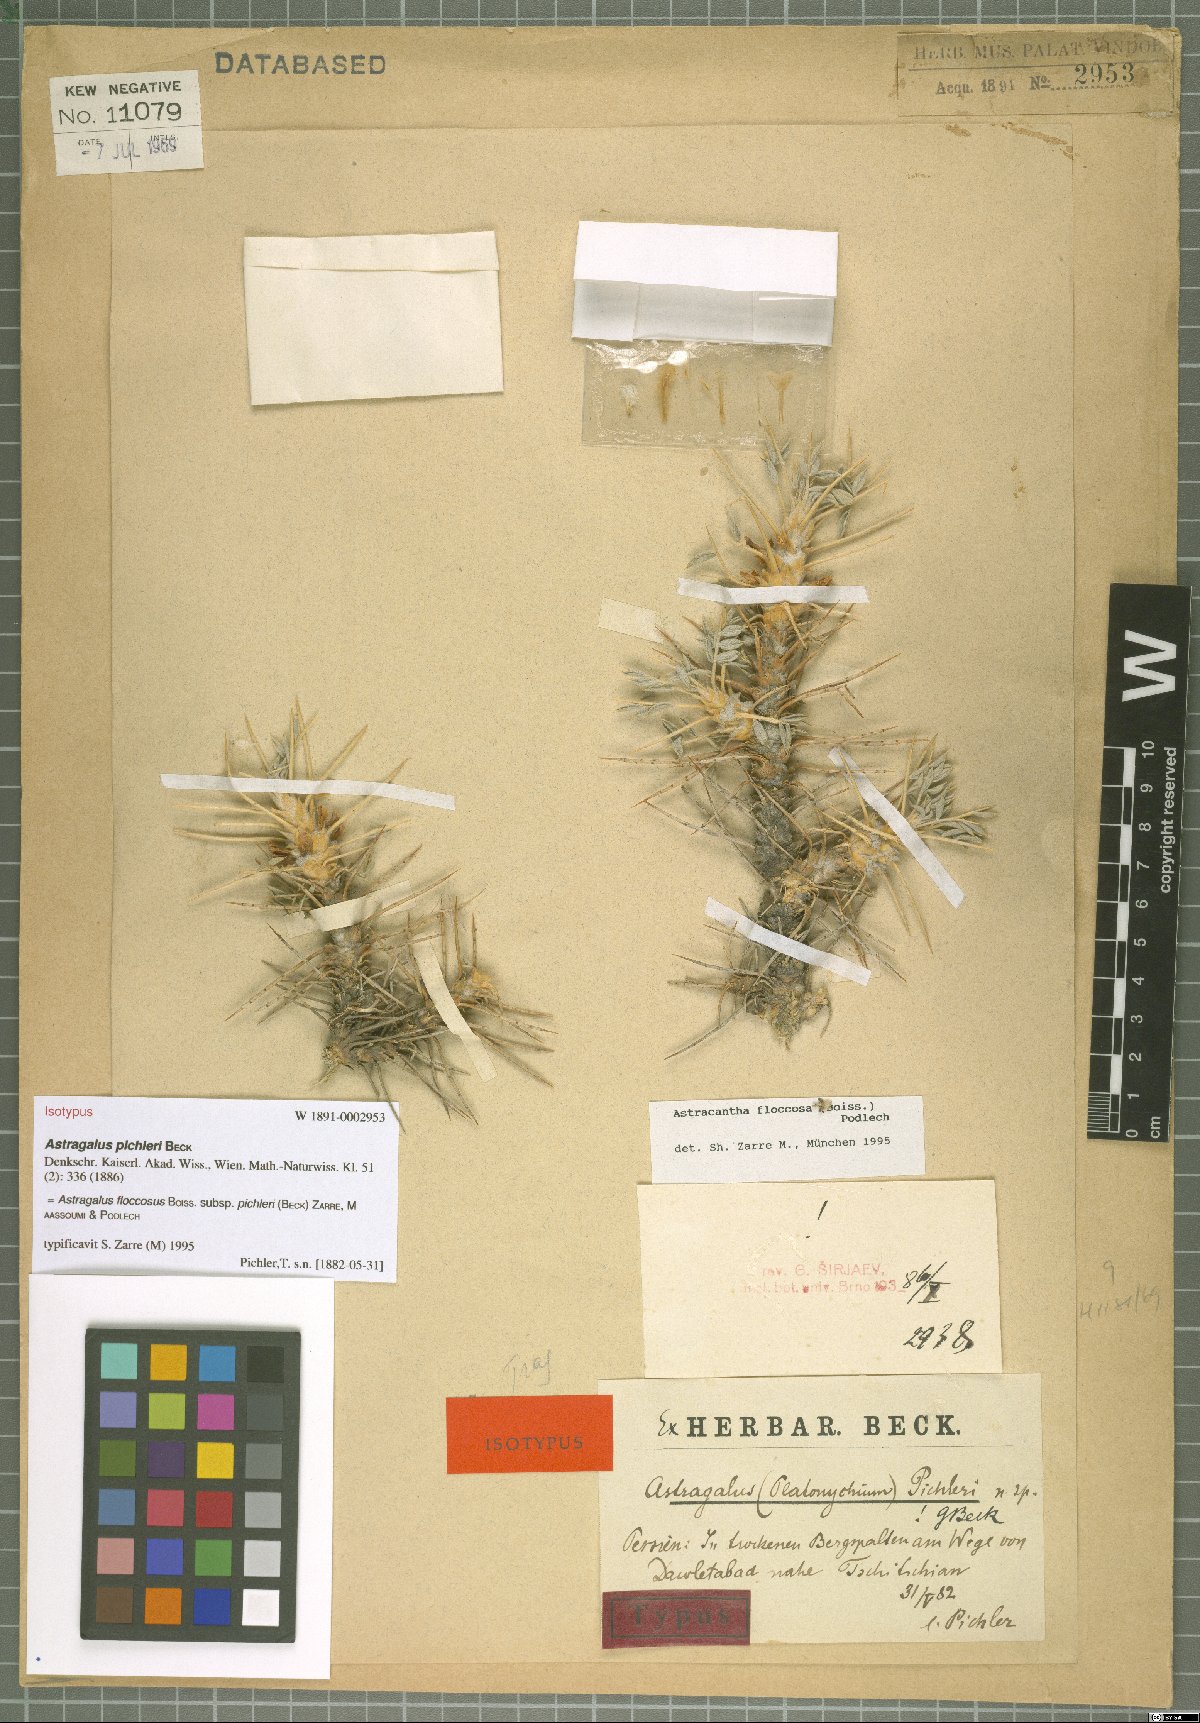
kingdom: Plantae
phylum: Tracheophyta
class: Magnoliopsida
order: Fabales
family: Fabaceae
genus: Astragalus
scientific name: Astragalus floccosus
